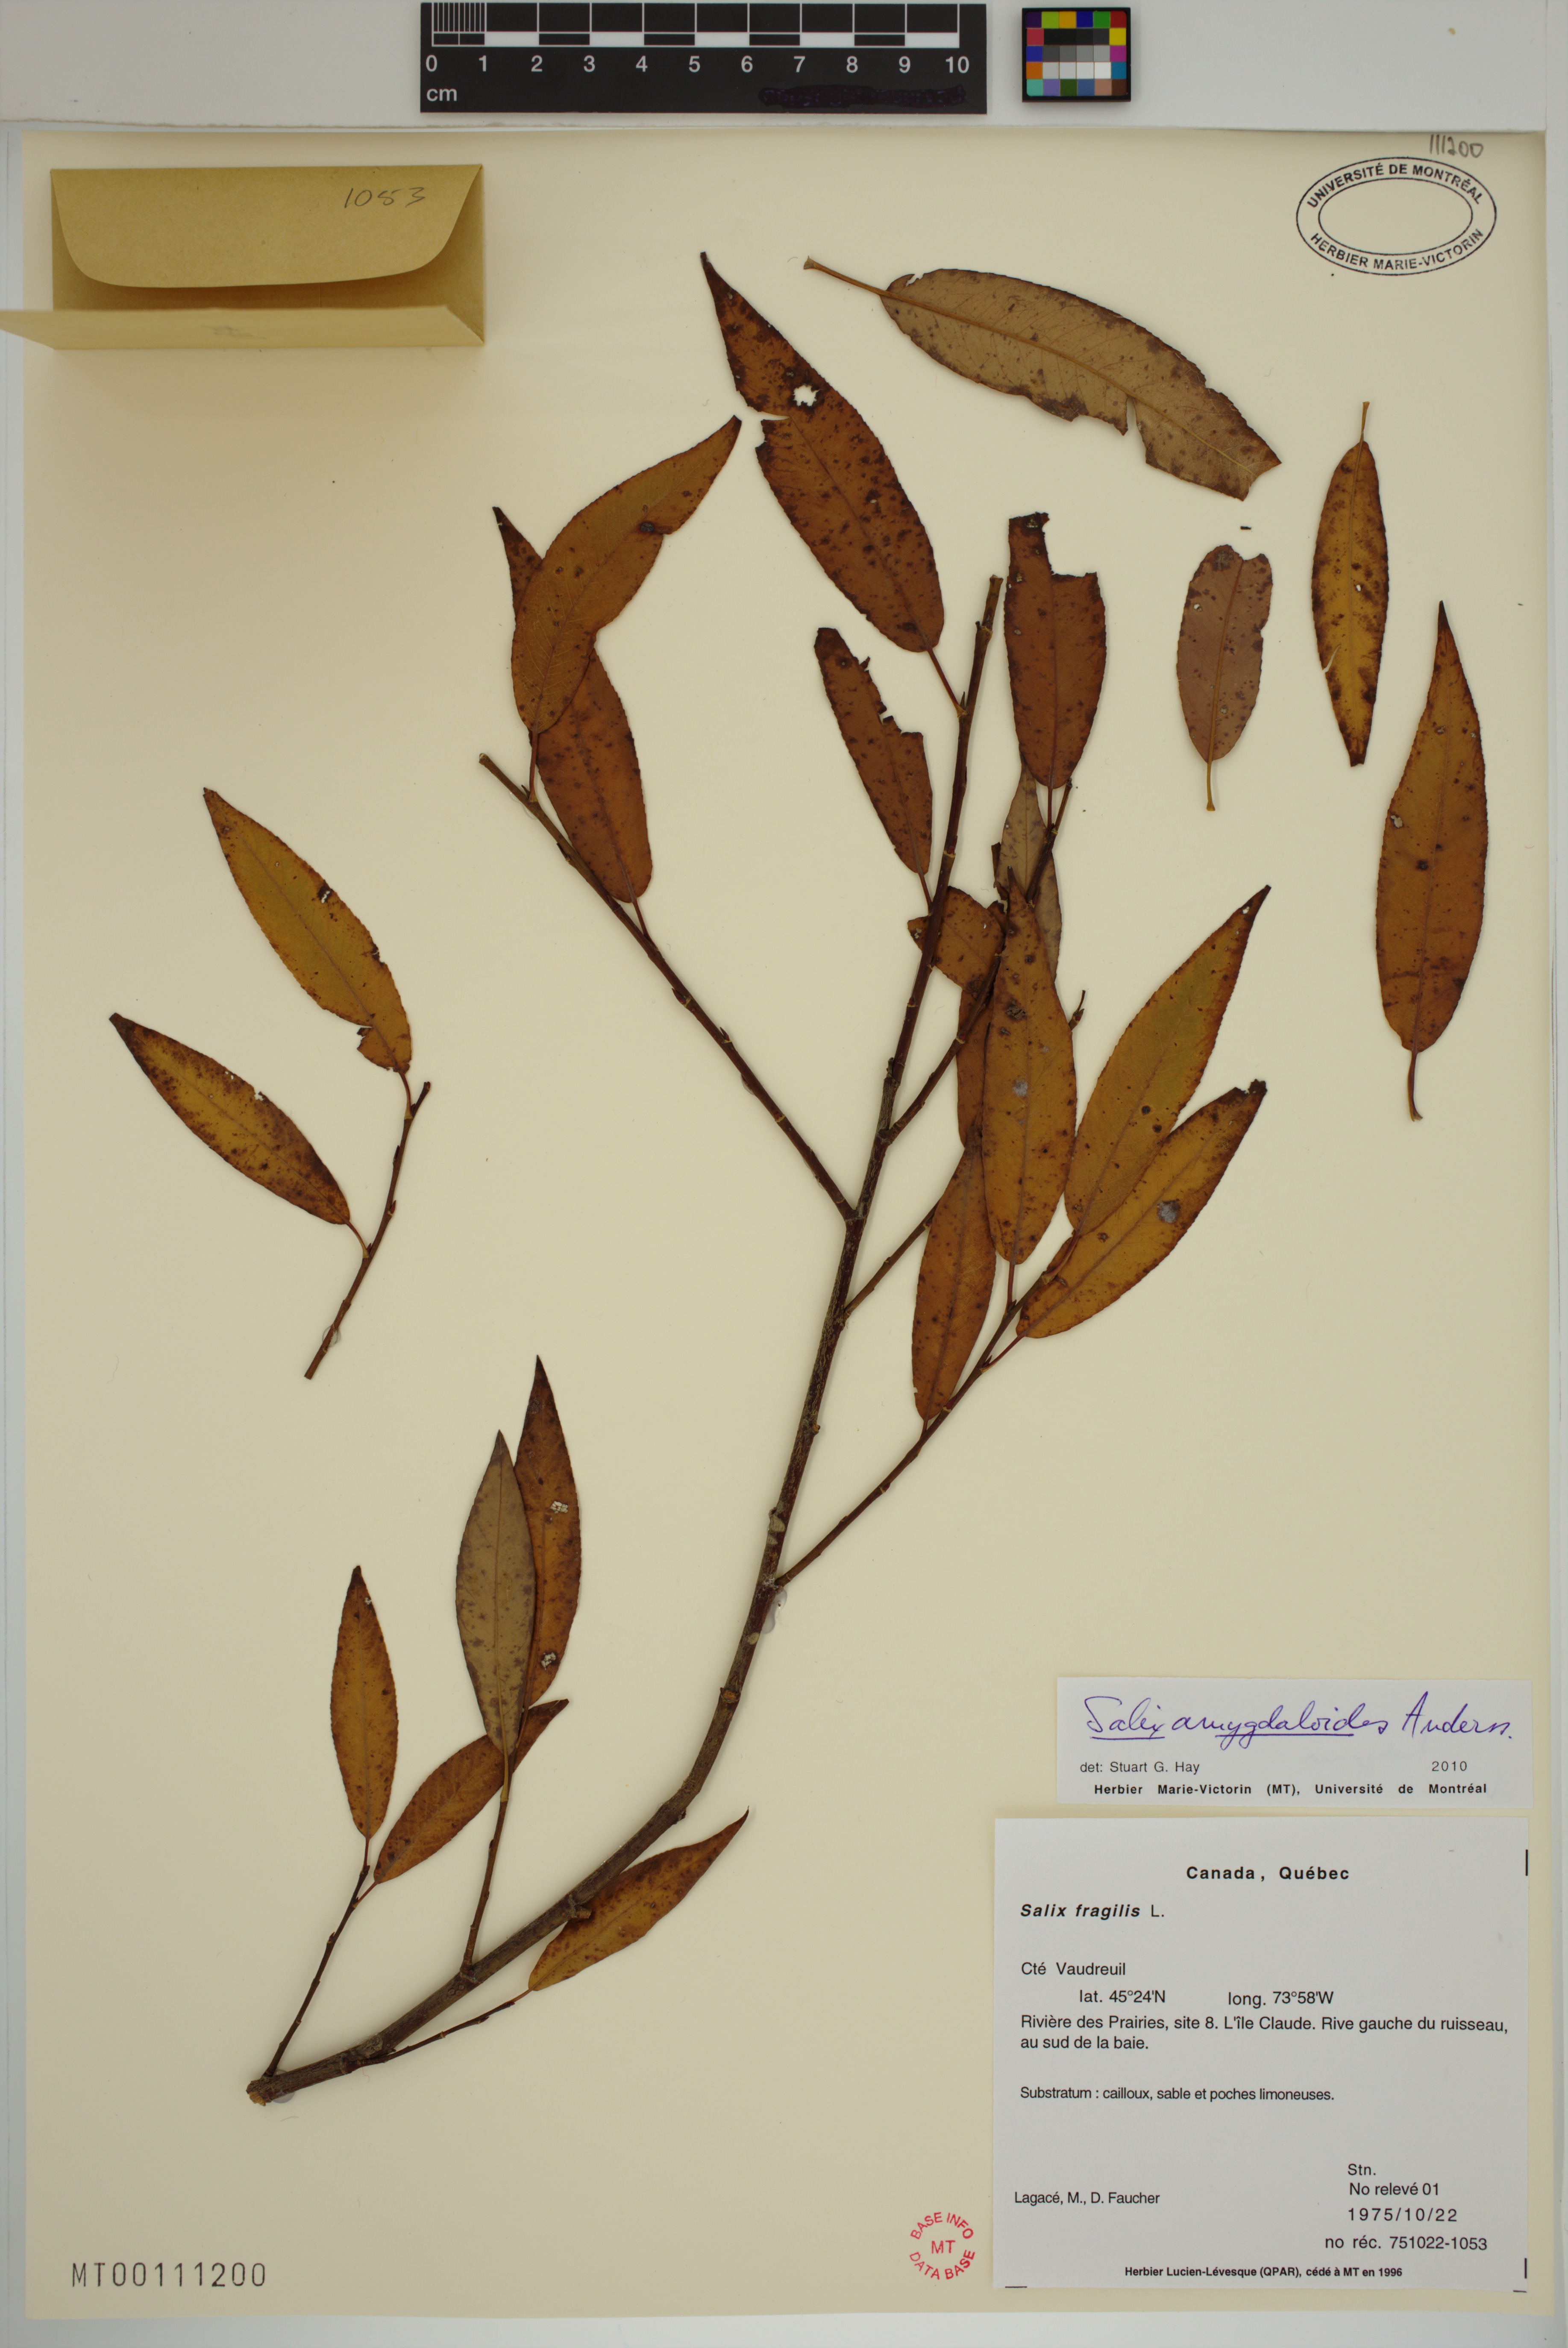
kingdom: Plantae
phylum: Tracheophyta
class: Magnoliopsida
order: Malpighiales
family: Salicaceae
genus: Salix
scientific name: Salix amygdaloides
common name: Peach leaf willow
